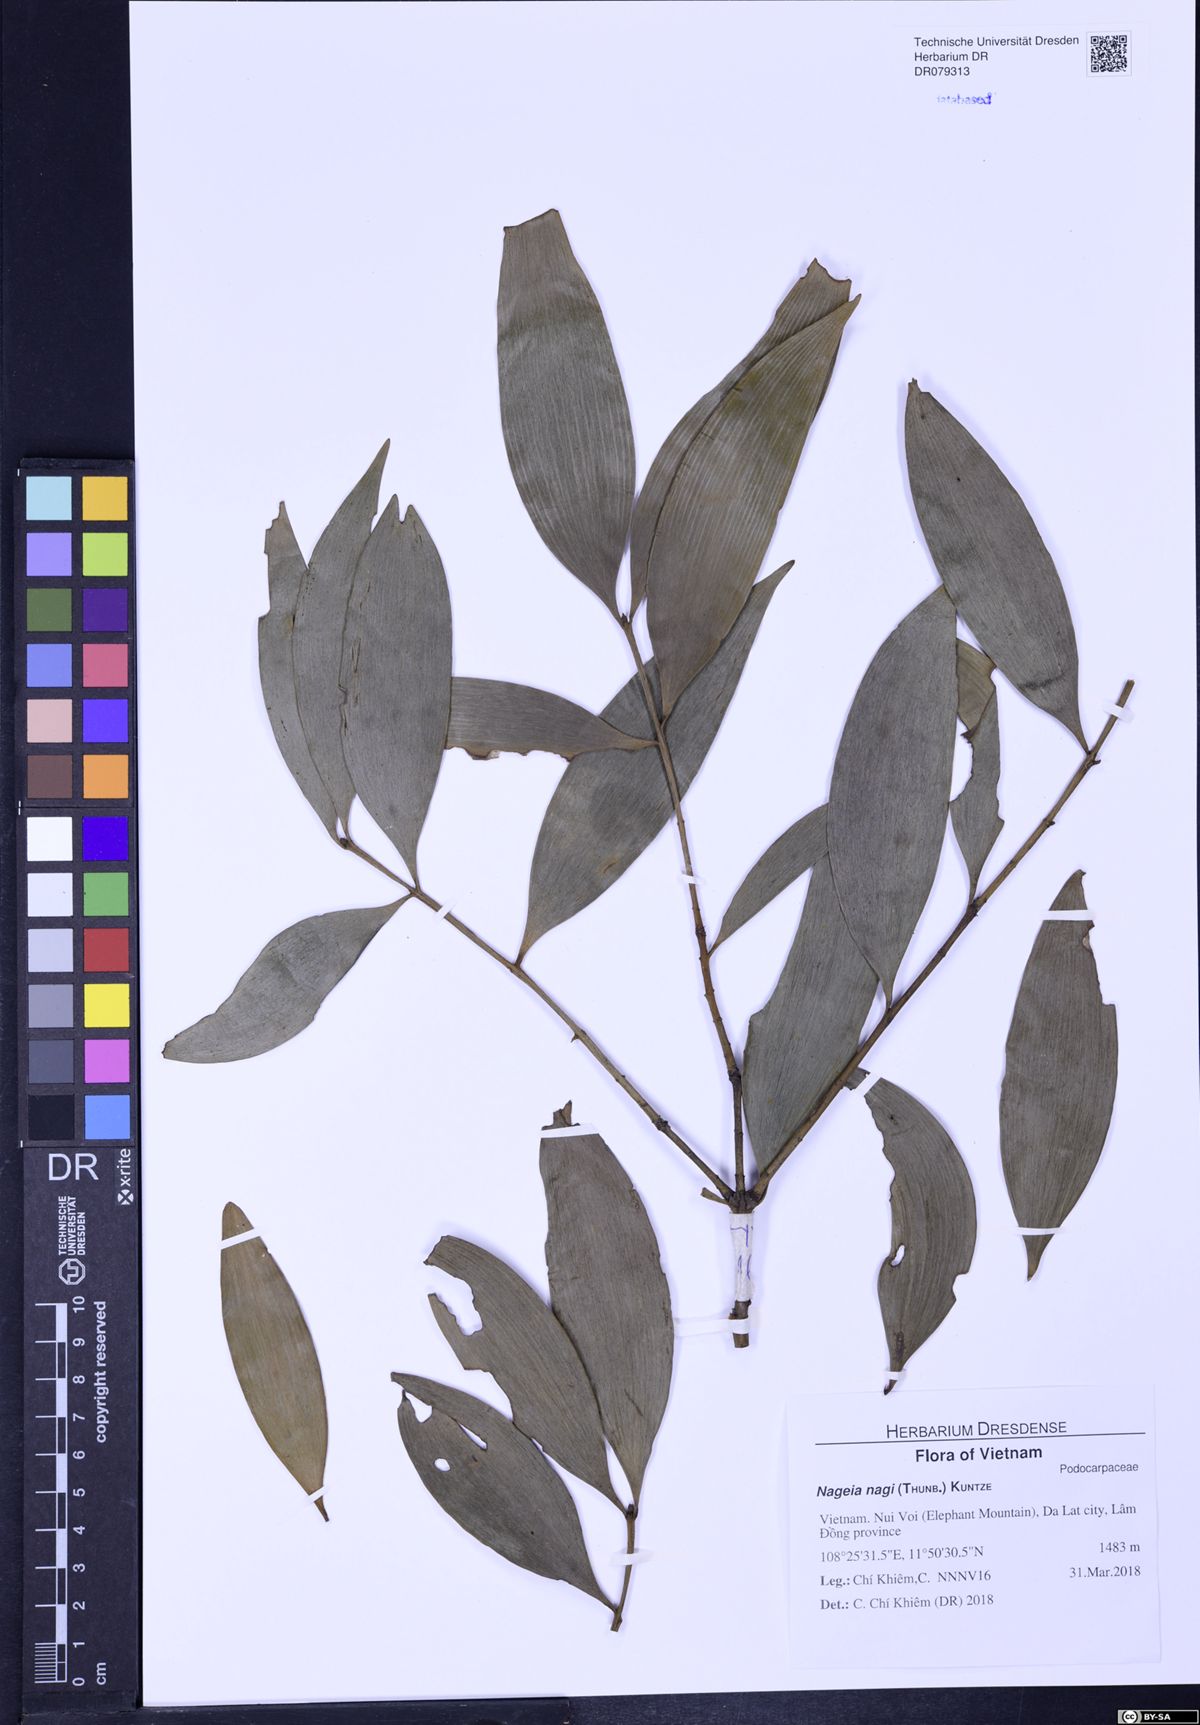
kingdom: Plantae
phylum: Tracheophyta
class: Pinopsida
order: Pinales
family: Podocarpaceae
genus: Nageia
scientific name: Nageia nagi
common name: Kaphal
